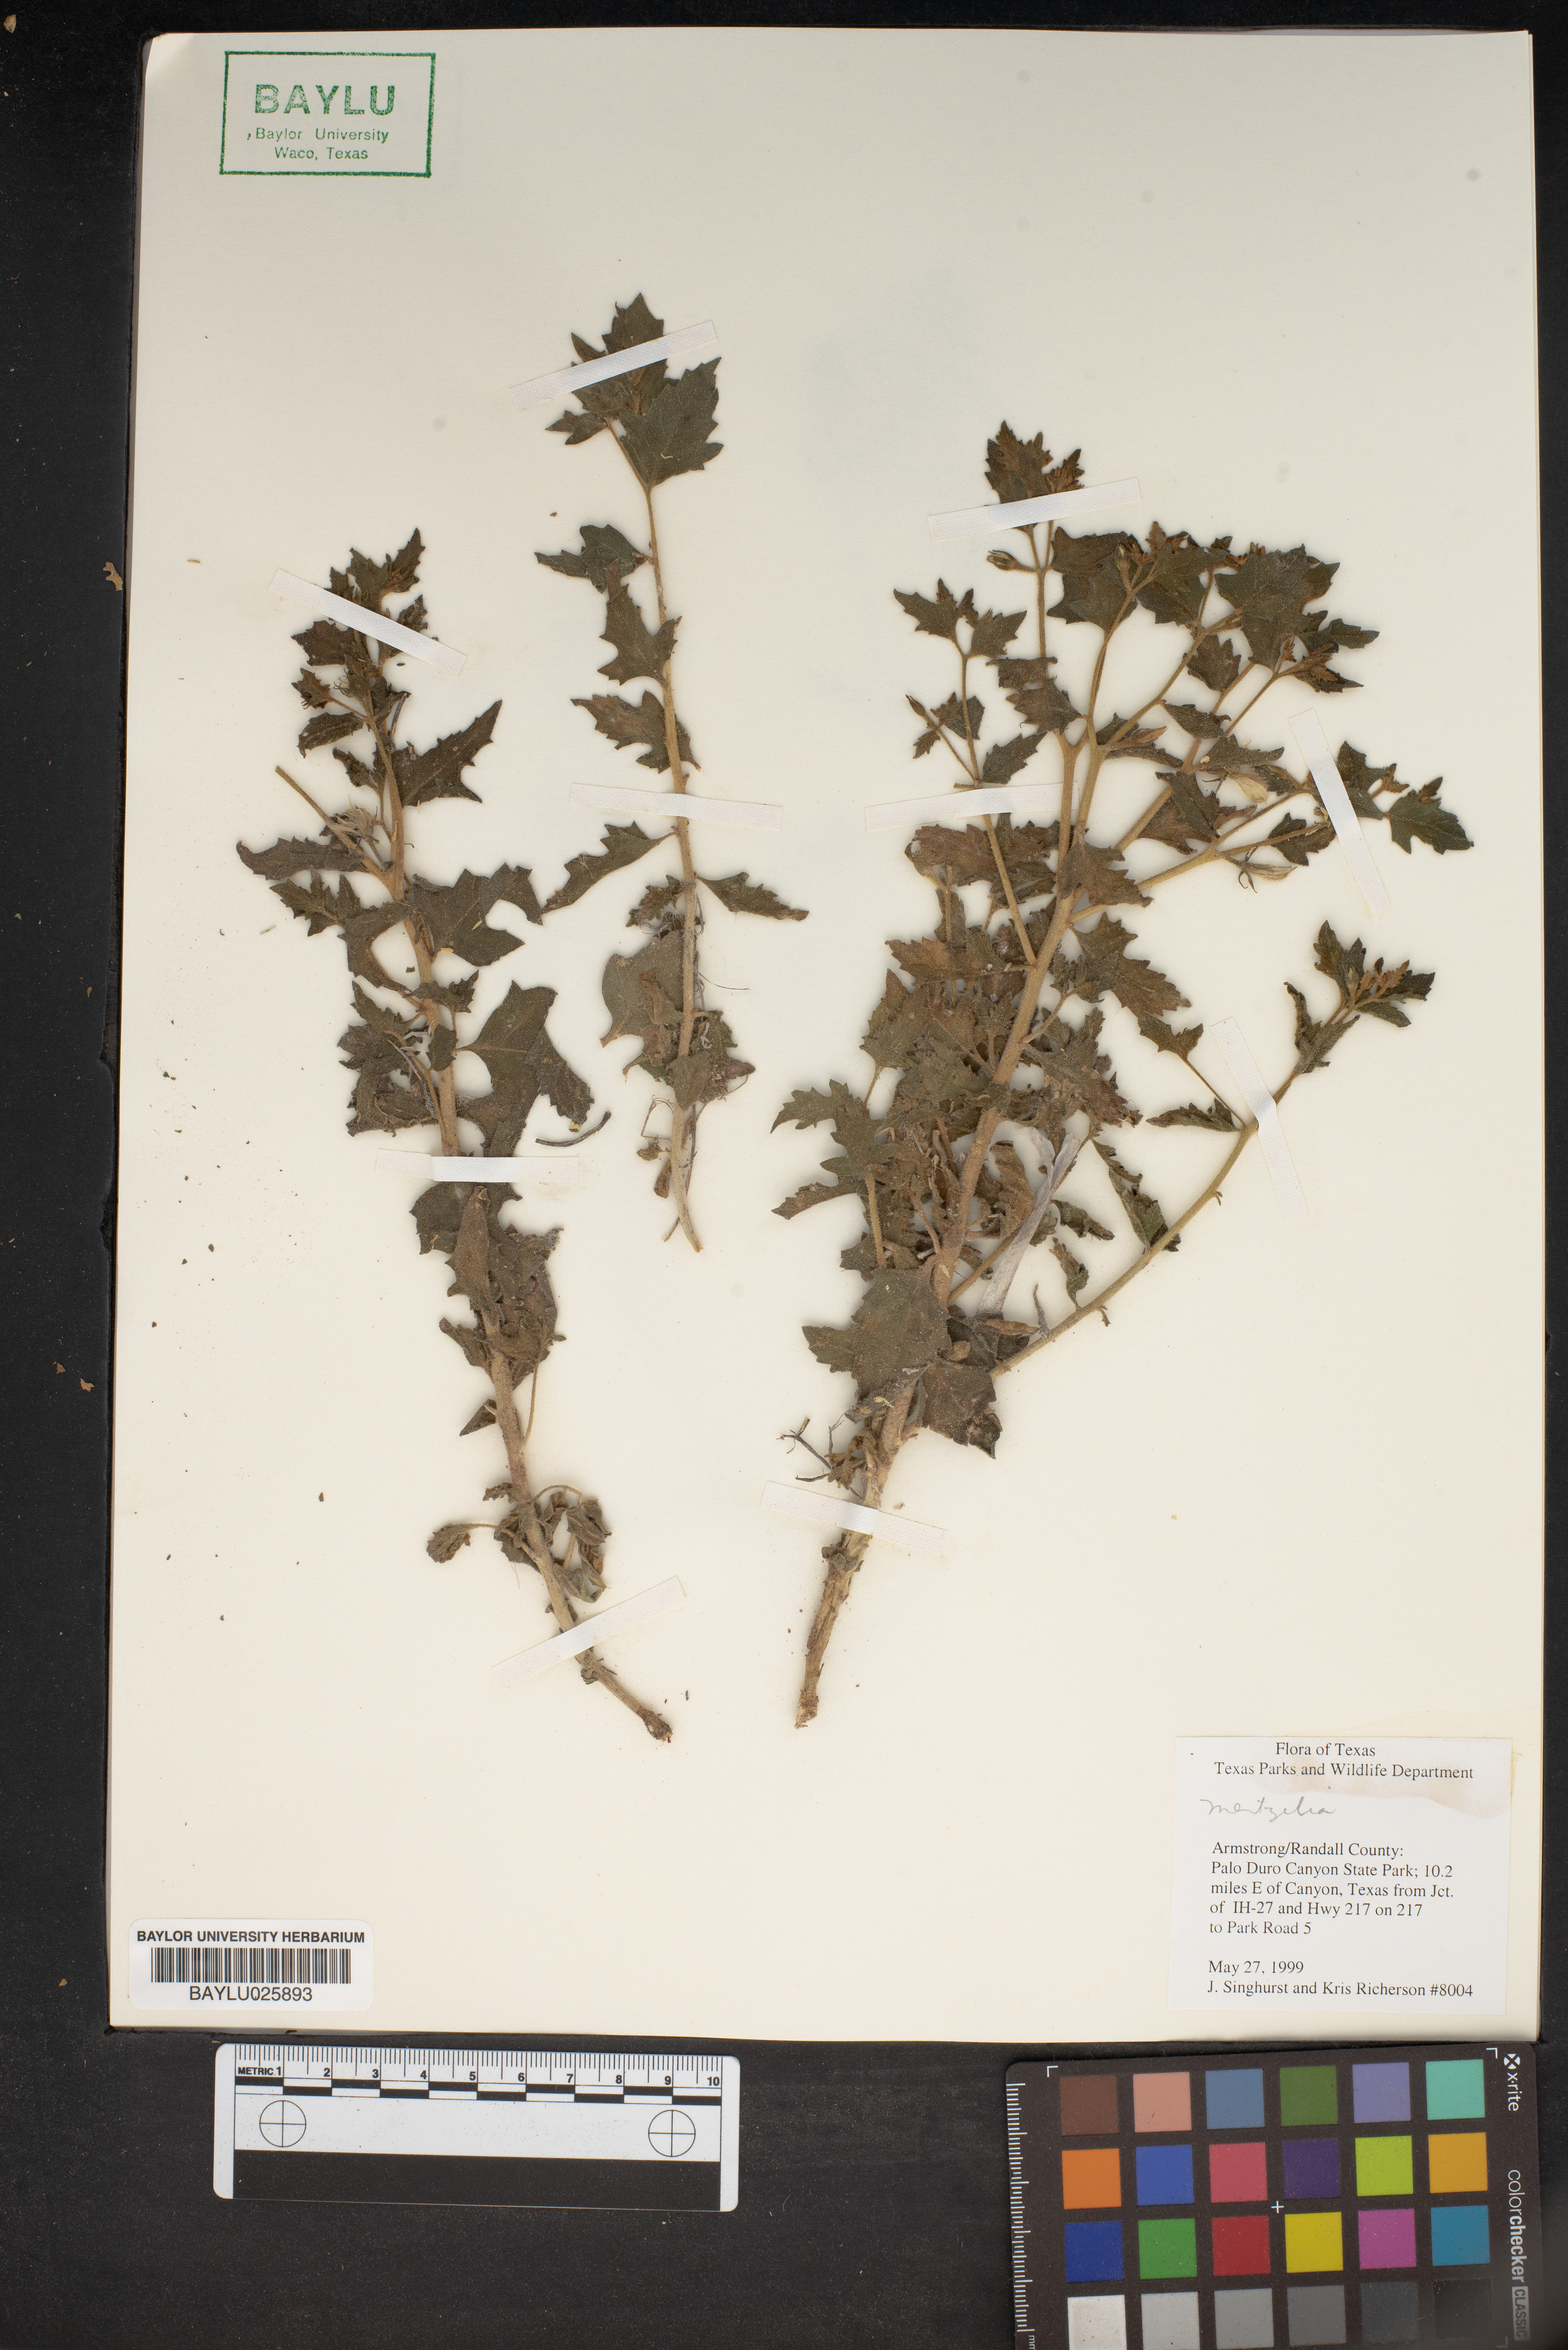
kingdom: Plantae
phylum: Tracheophyta
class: Magnoliopsida
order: Cornales
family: Loasaceae
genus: Mentzelia
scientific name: Mentzelia
